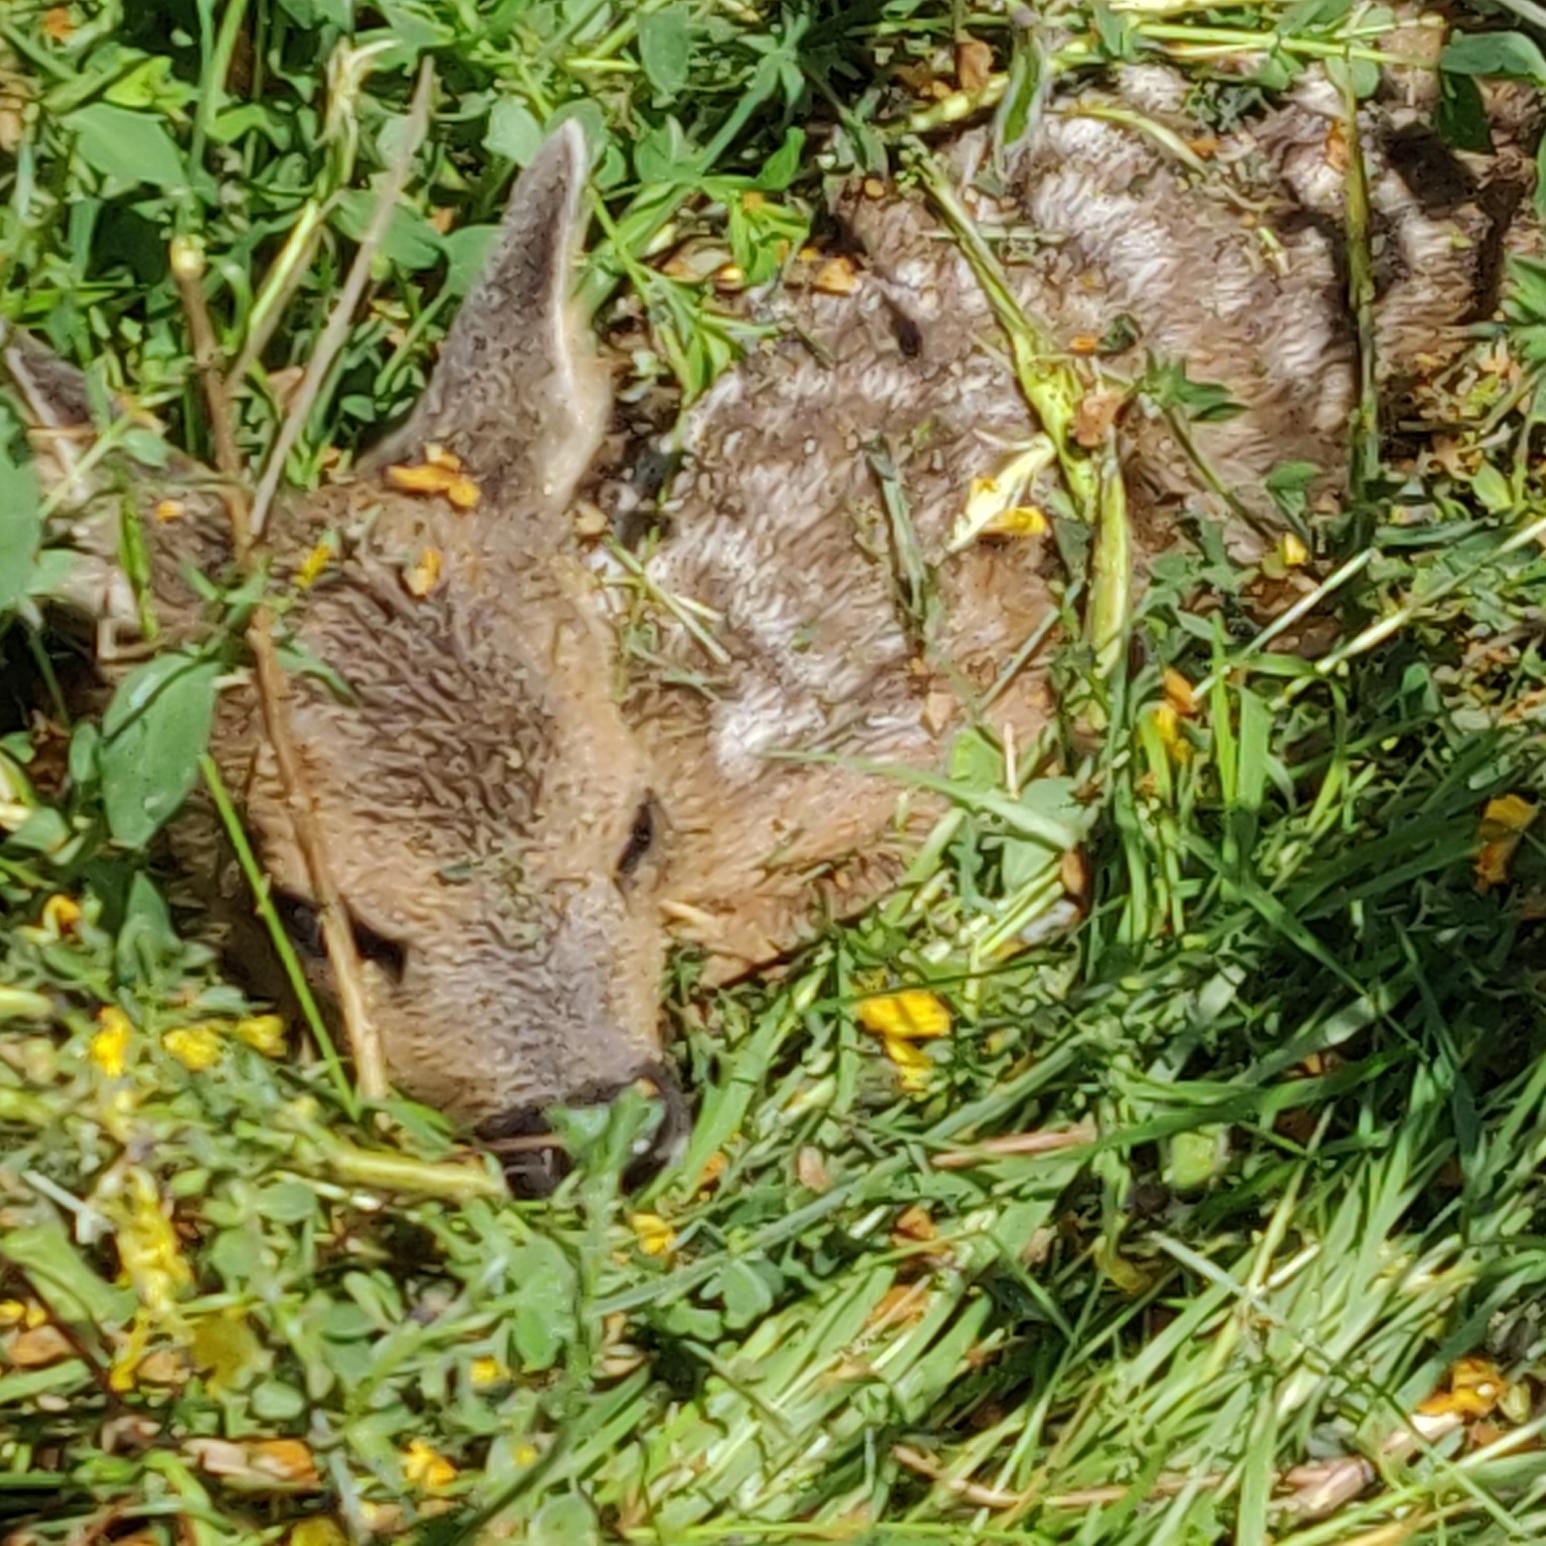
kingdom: Animalia
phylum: Chordata
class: Mammalia
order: Artiodactyla
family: Cervidae
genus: Capreolus
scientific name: Capreolus capreolus
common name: Rådyr
